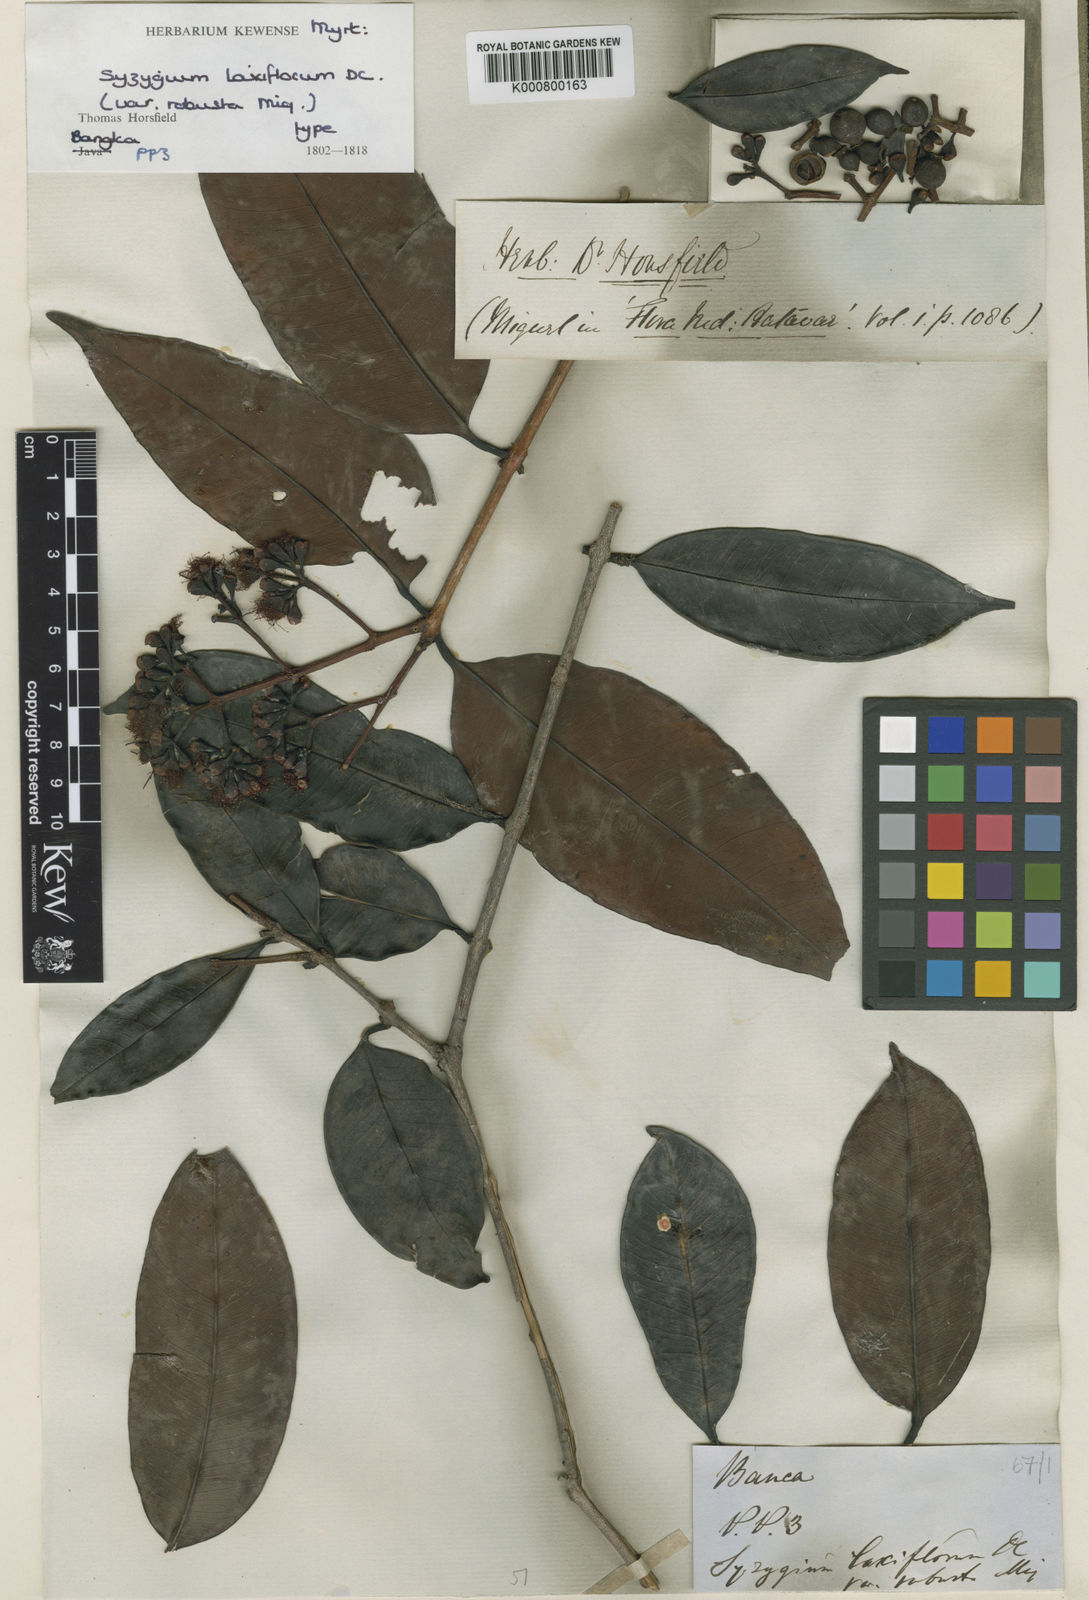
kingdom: Plantae
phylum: Tracheophyta
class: Magnoliopsida
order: Myrtales
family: Myrtaceae
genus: Syzygium
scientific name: Syzygium laxiflorum
